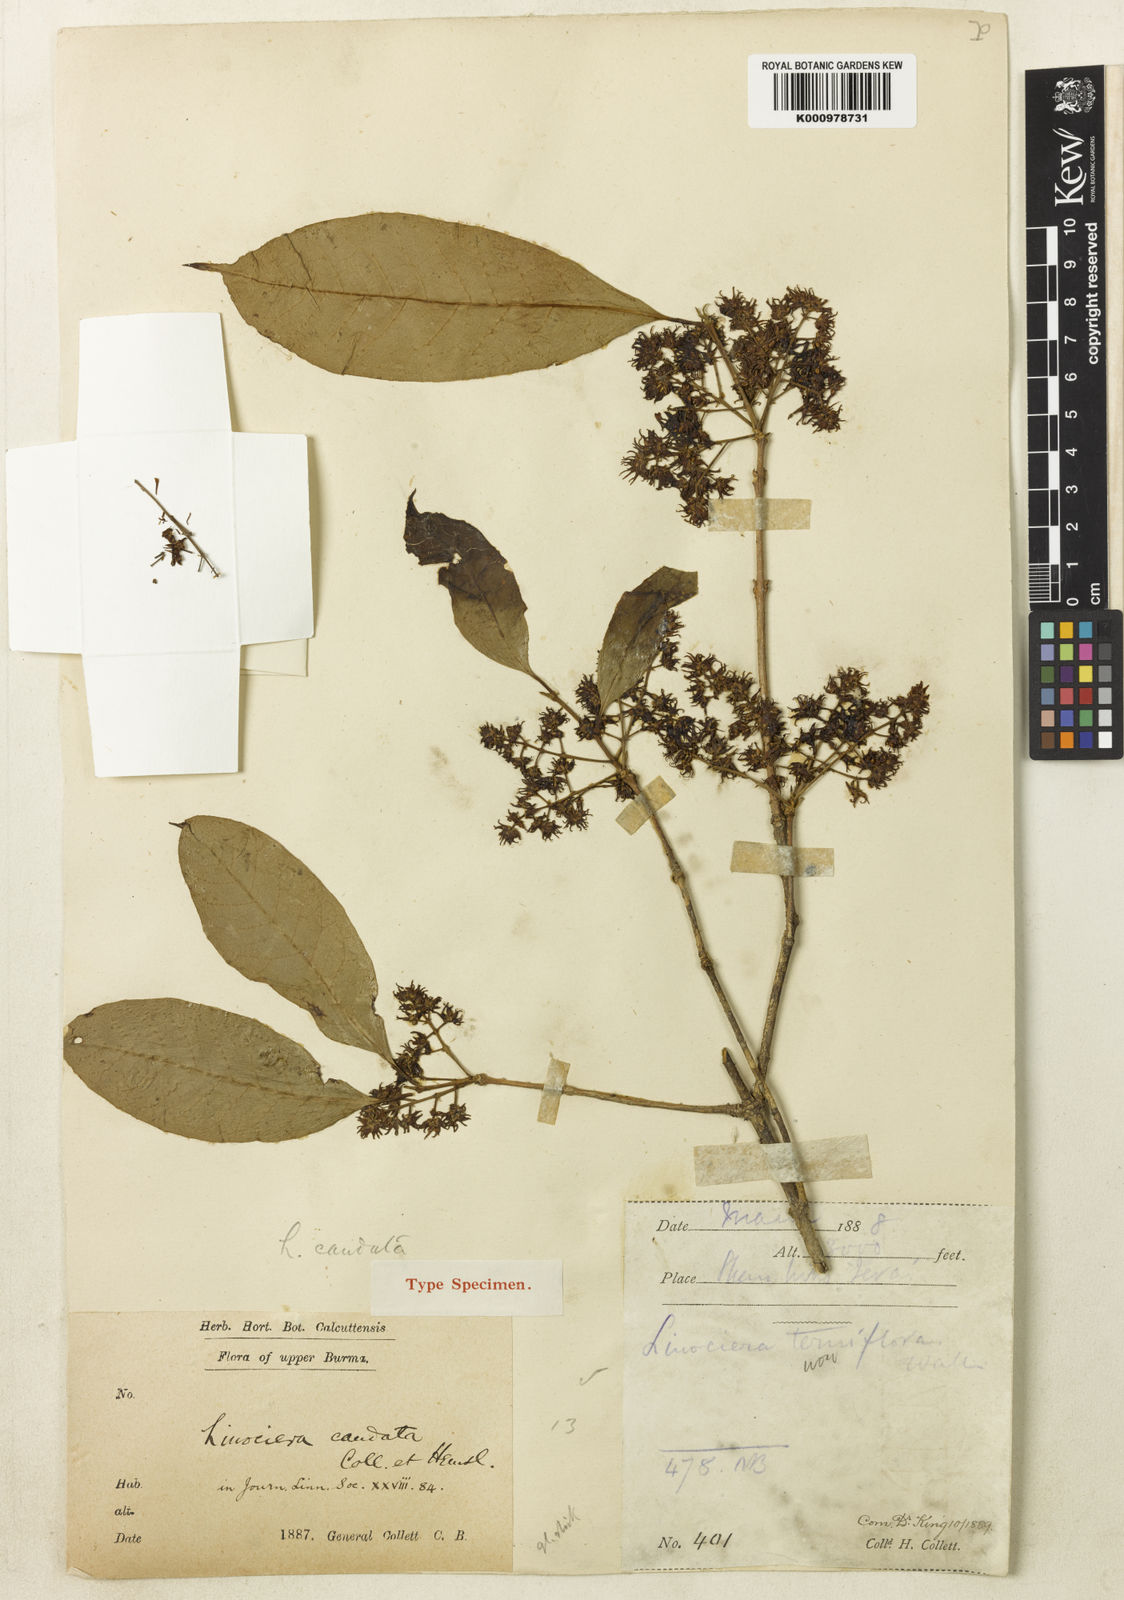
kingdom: Plantae
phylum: Tracheophyta
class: Magnoliopsida
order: Lamiales
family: Oleaceae
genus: Chionanthus
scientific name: Chionanthus mala-elengi
